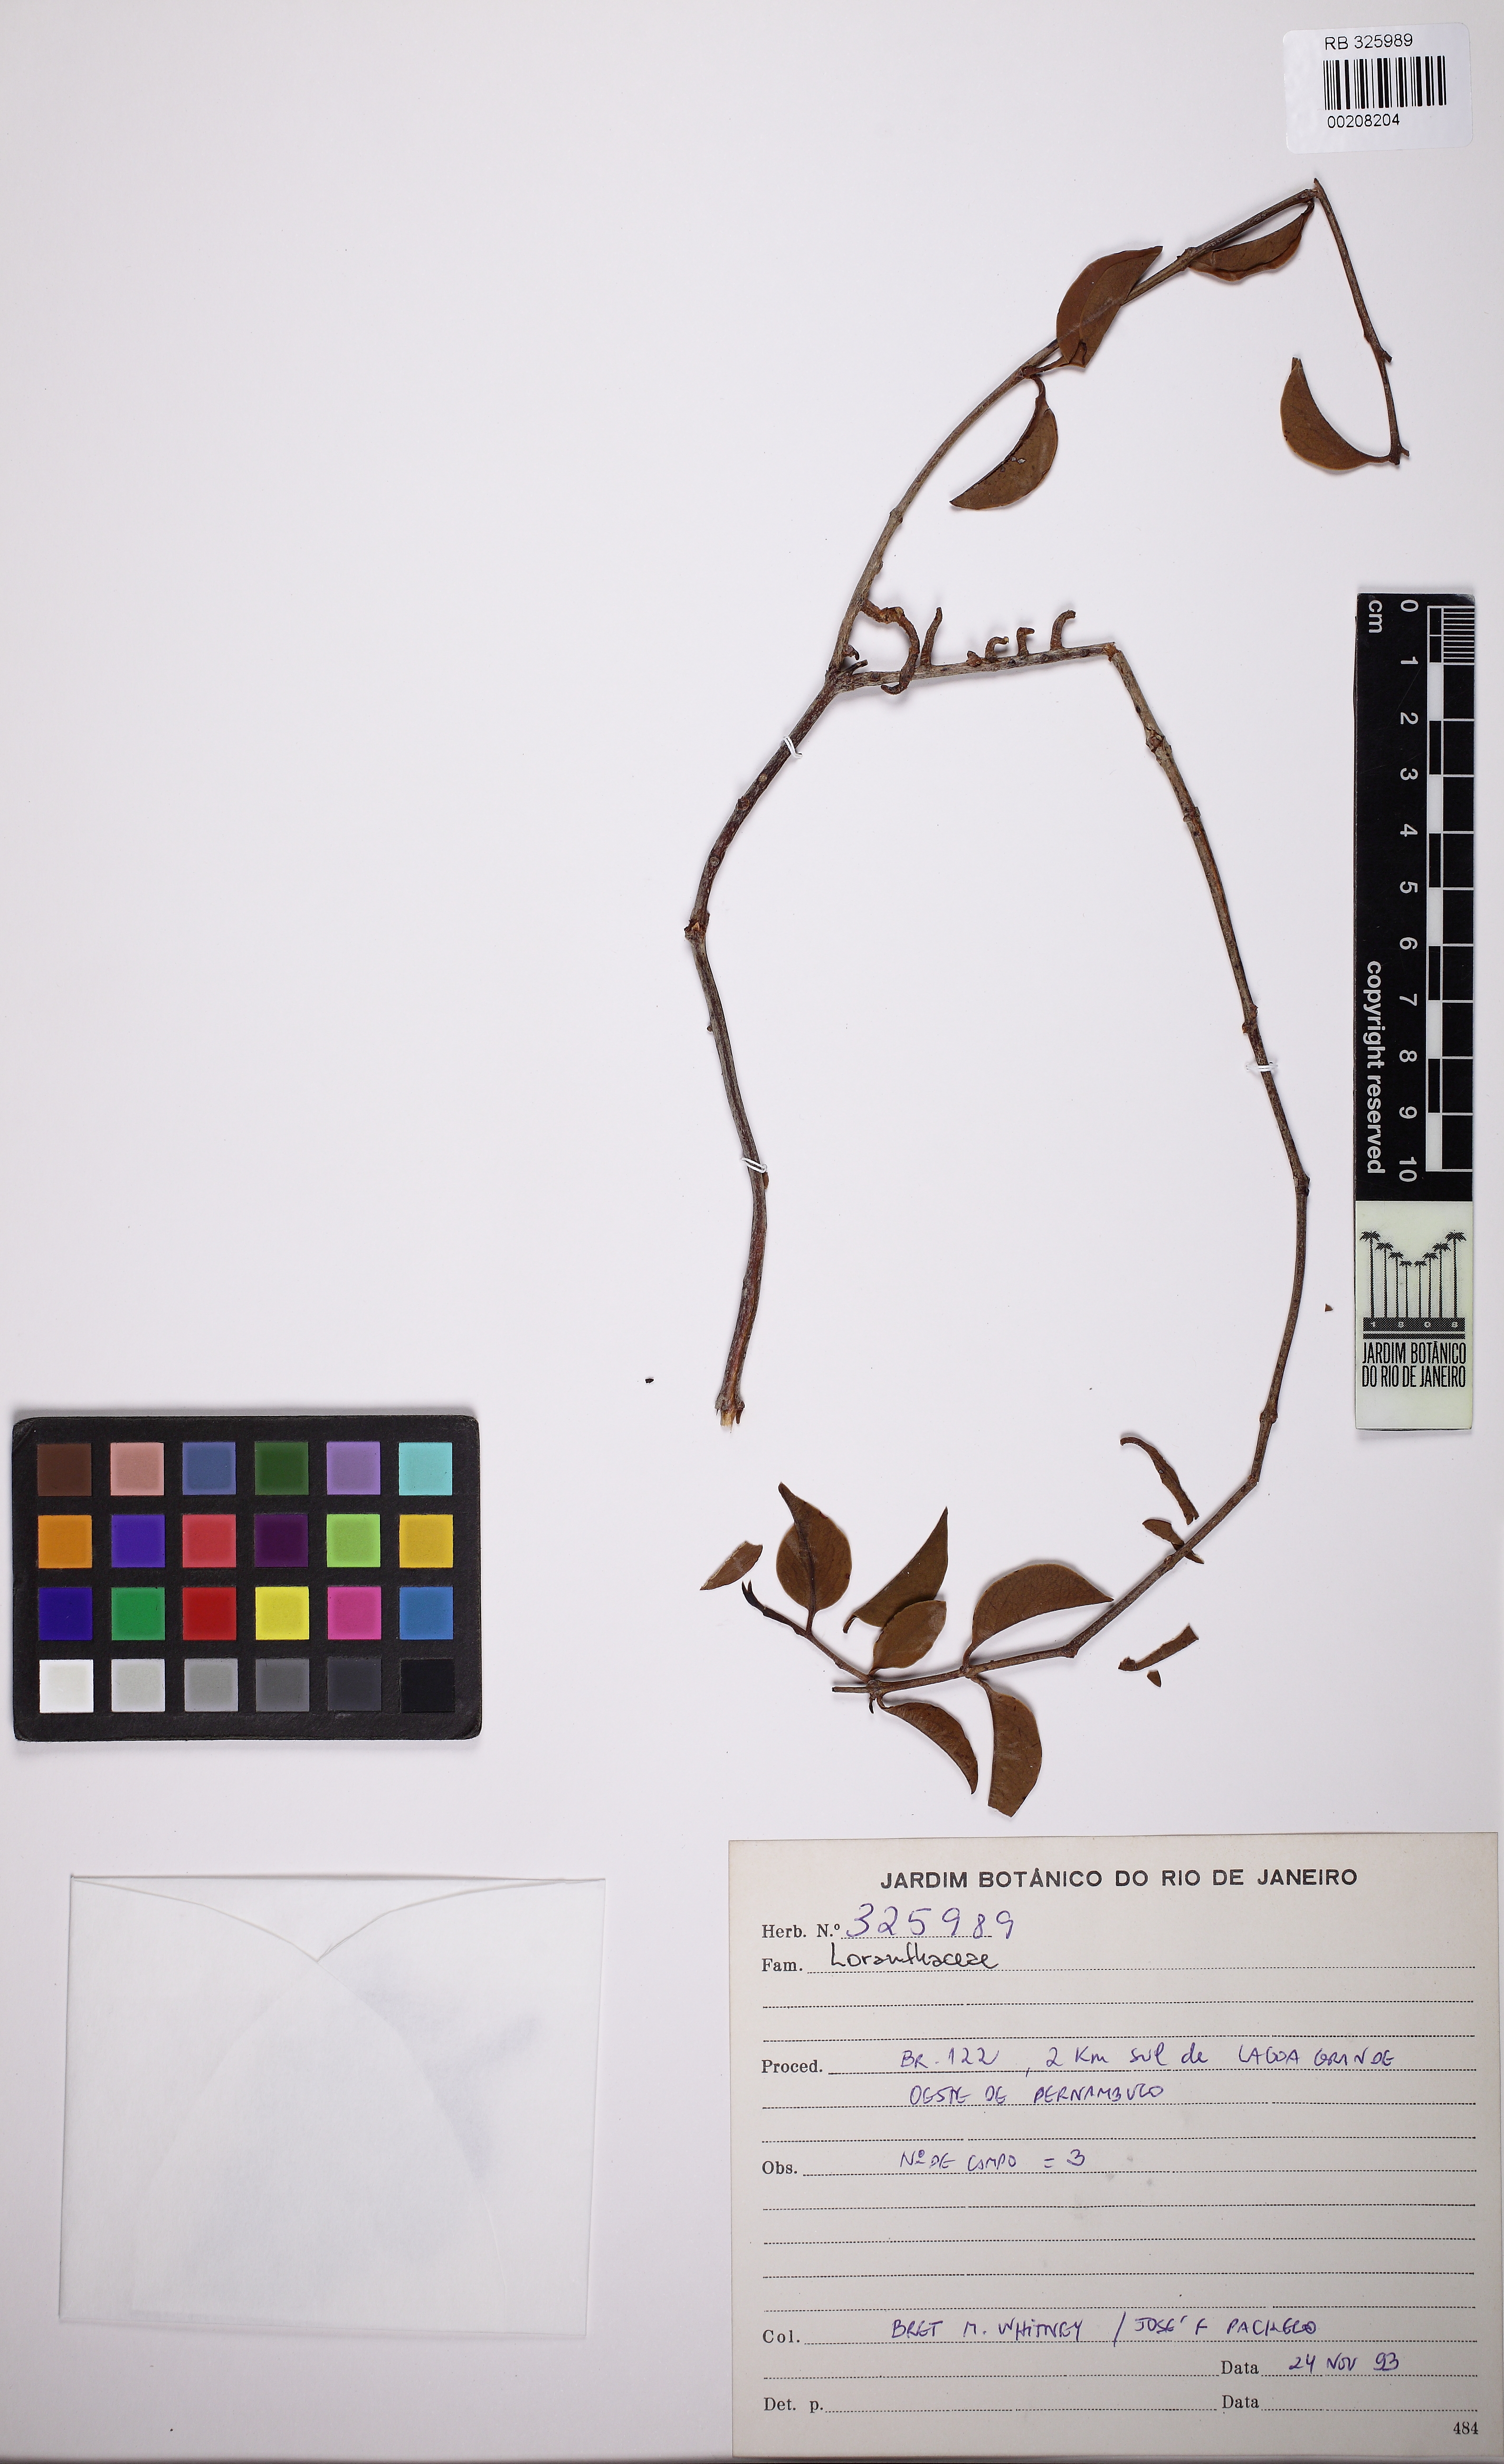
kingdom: Plantae
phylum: Tracheophyta
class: Magnoliopsida
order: Santalales
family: Loranthaceae
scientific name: Loranthaceae
